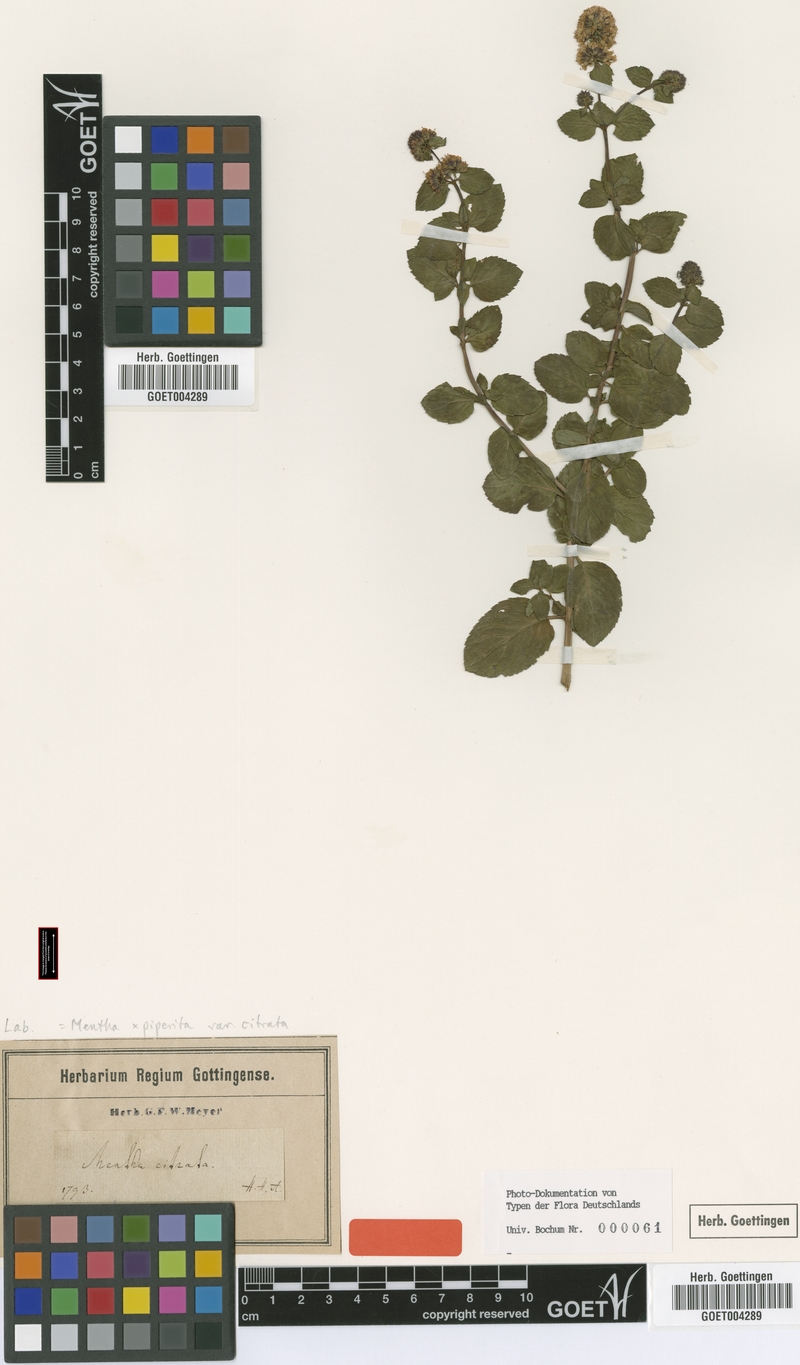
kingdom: Plantae
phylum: Tracheophyta
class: Magnoliopsida
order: Lamiales
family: Lamiaceae
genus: Mentha
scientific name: Mentha aquatica
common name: Water mint
